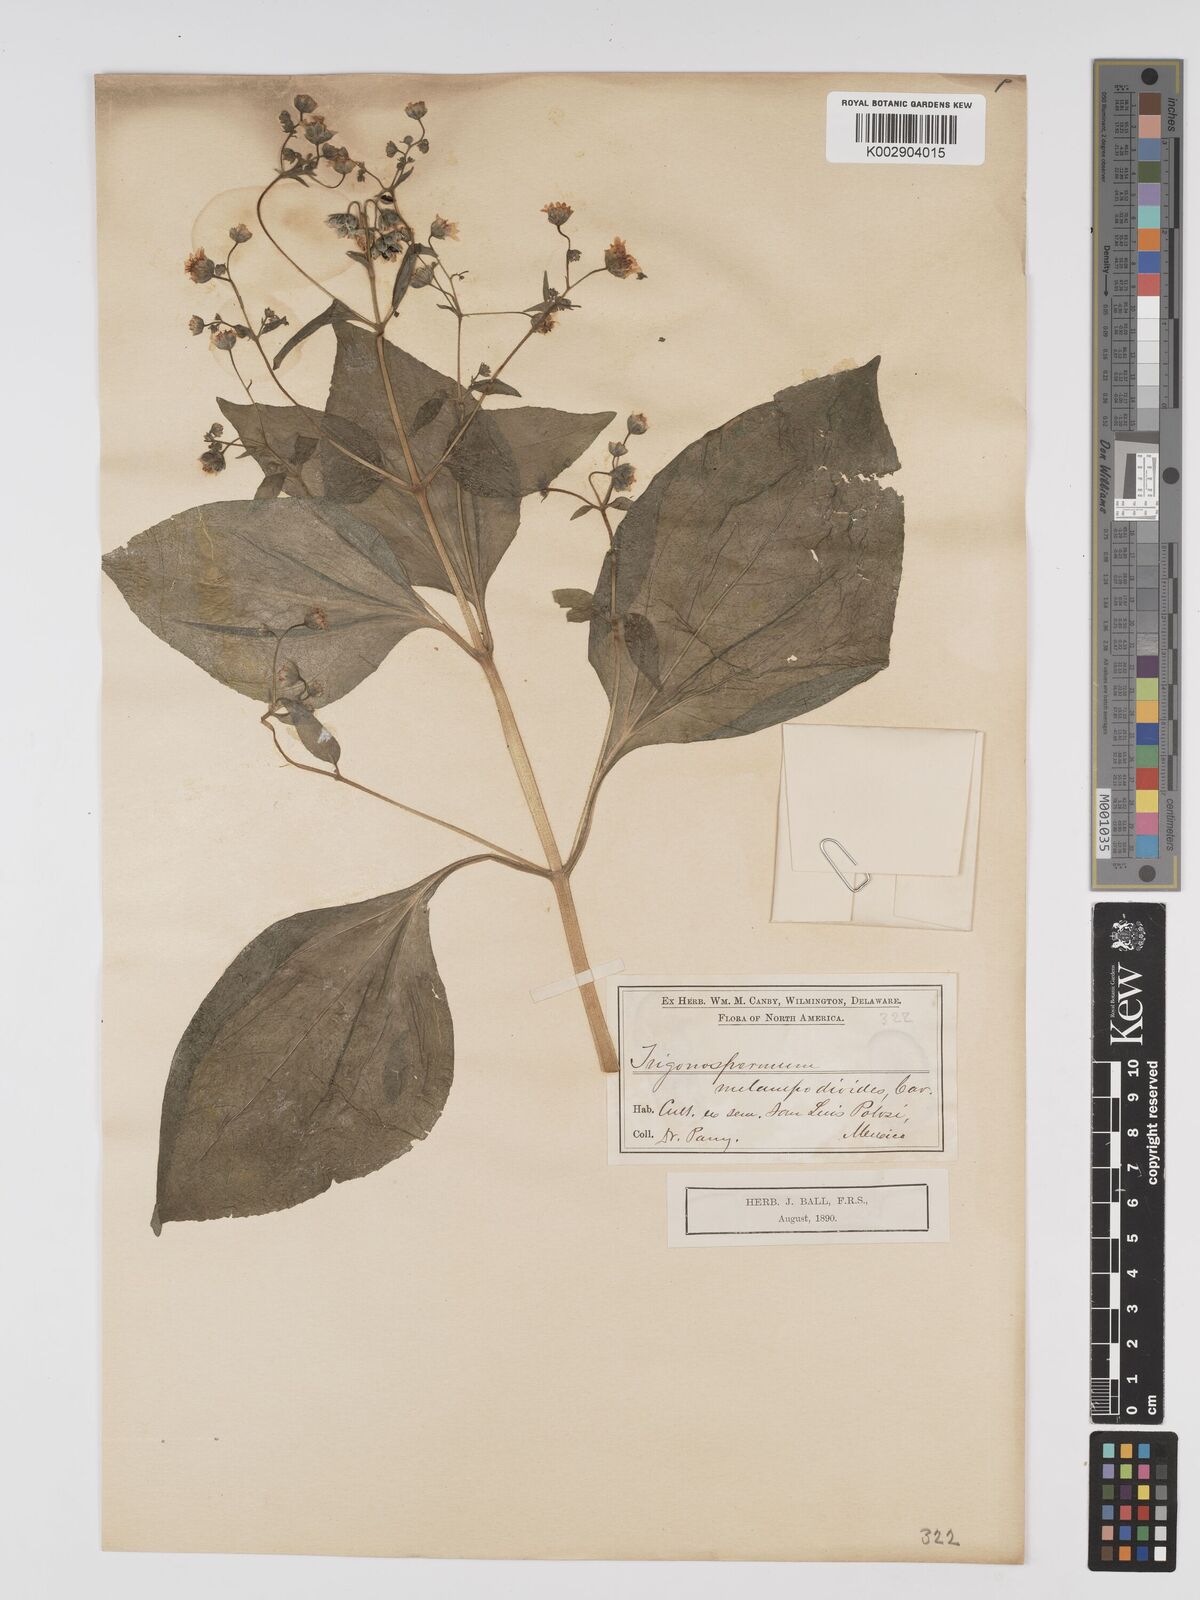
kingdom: Plantae
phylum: Tracheophyta
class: Magnoliopsida
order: Asterales
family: Asteraceae
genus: Trigonospermum
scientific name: Trigonospermum melampodioides
